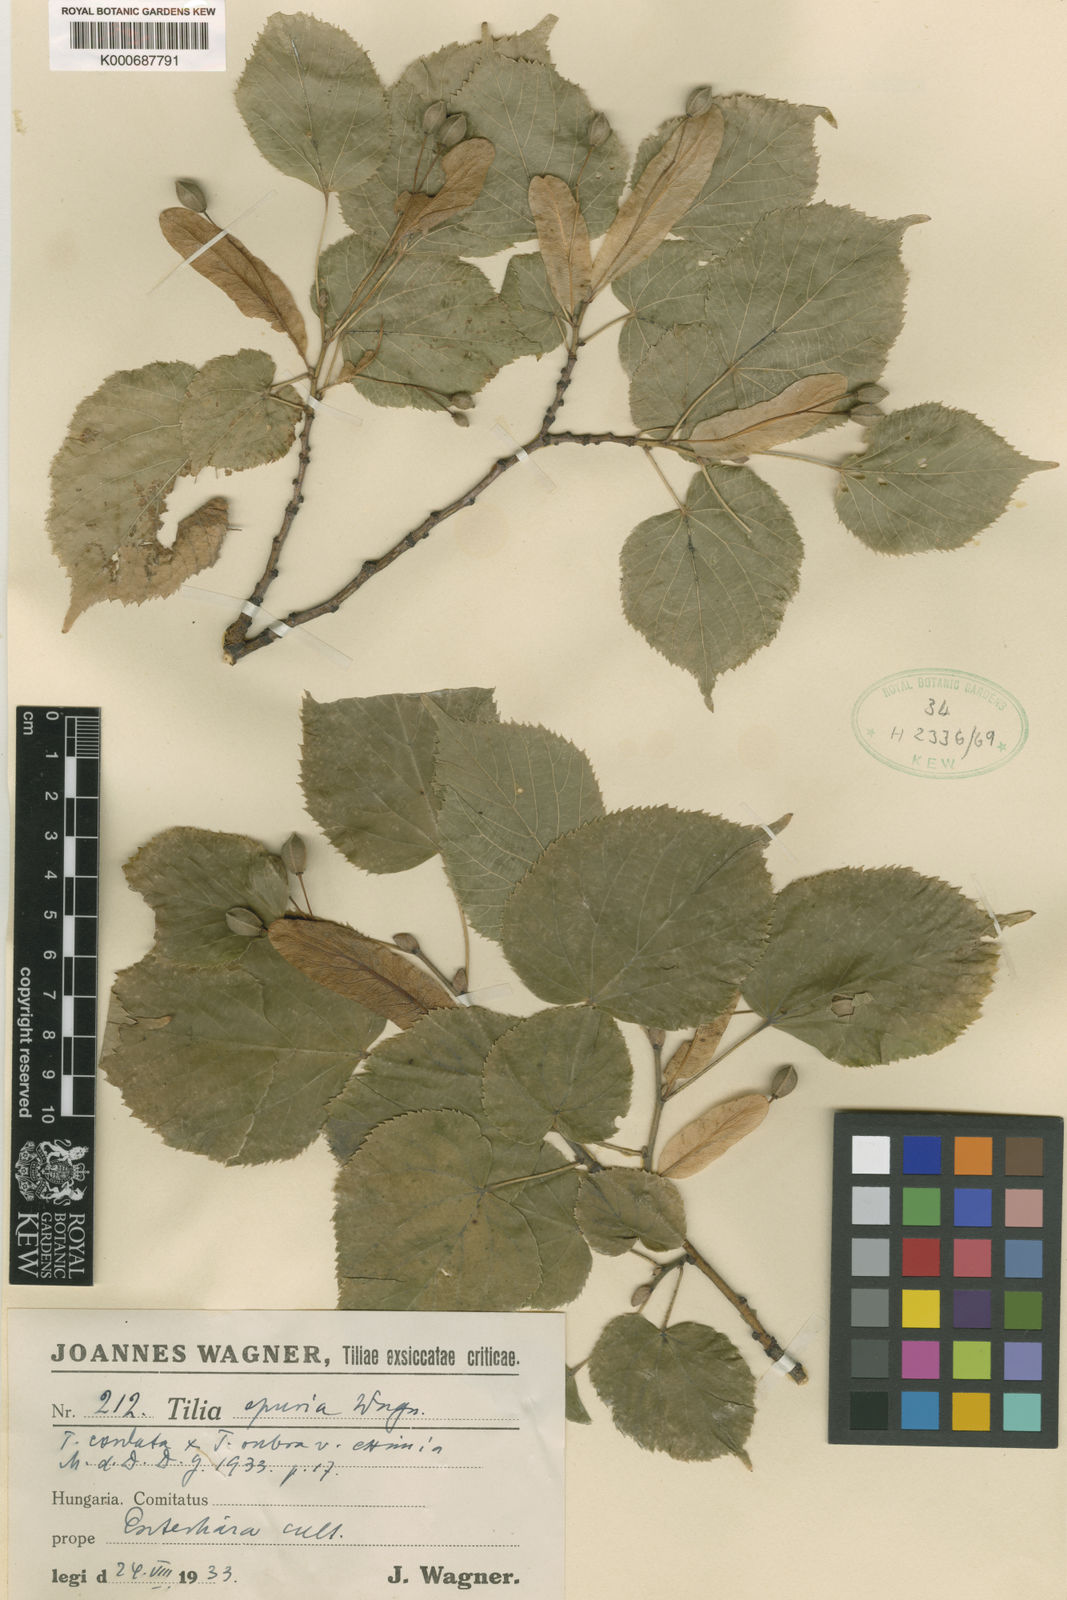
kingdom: Plantae
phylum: Tracheophyta
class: Magnoliopsida
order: Malvales
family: Malvaceae
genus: Tilia
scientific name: Tilia
